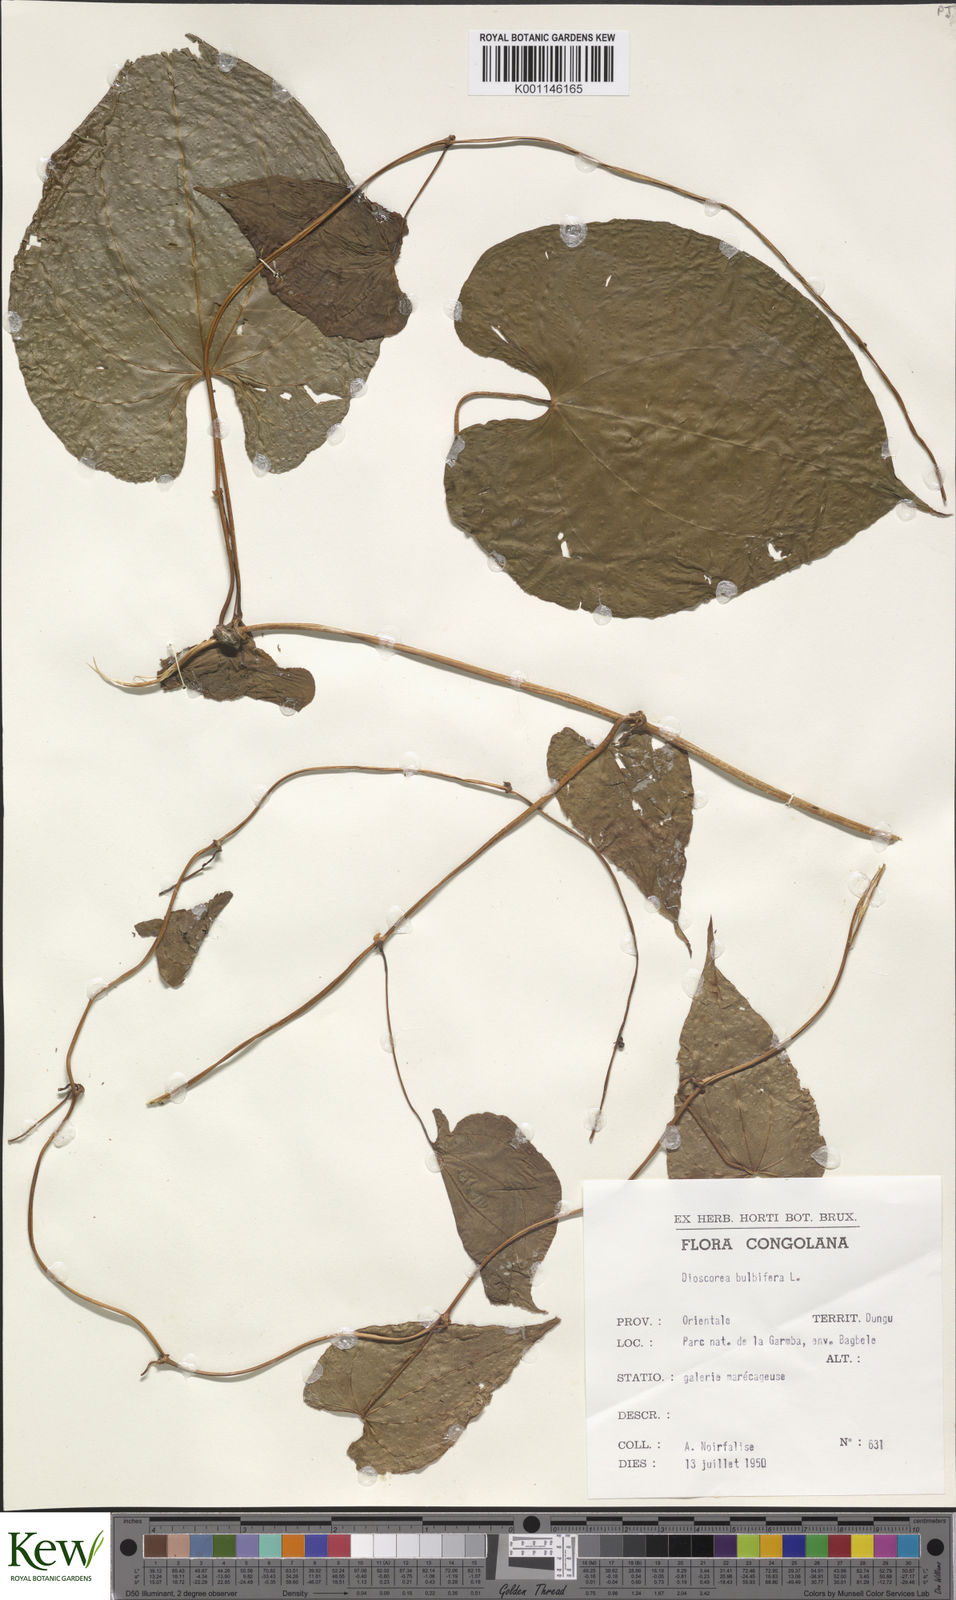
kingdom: Plantae
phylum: Tracheophyta
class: Liliopsida
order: Dioscoreales
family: Dioscoreaceae
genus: Dioscorea
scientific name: Dioscorea bulbifera
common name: Air yam
